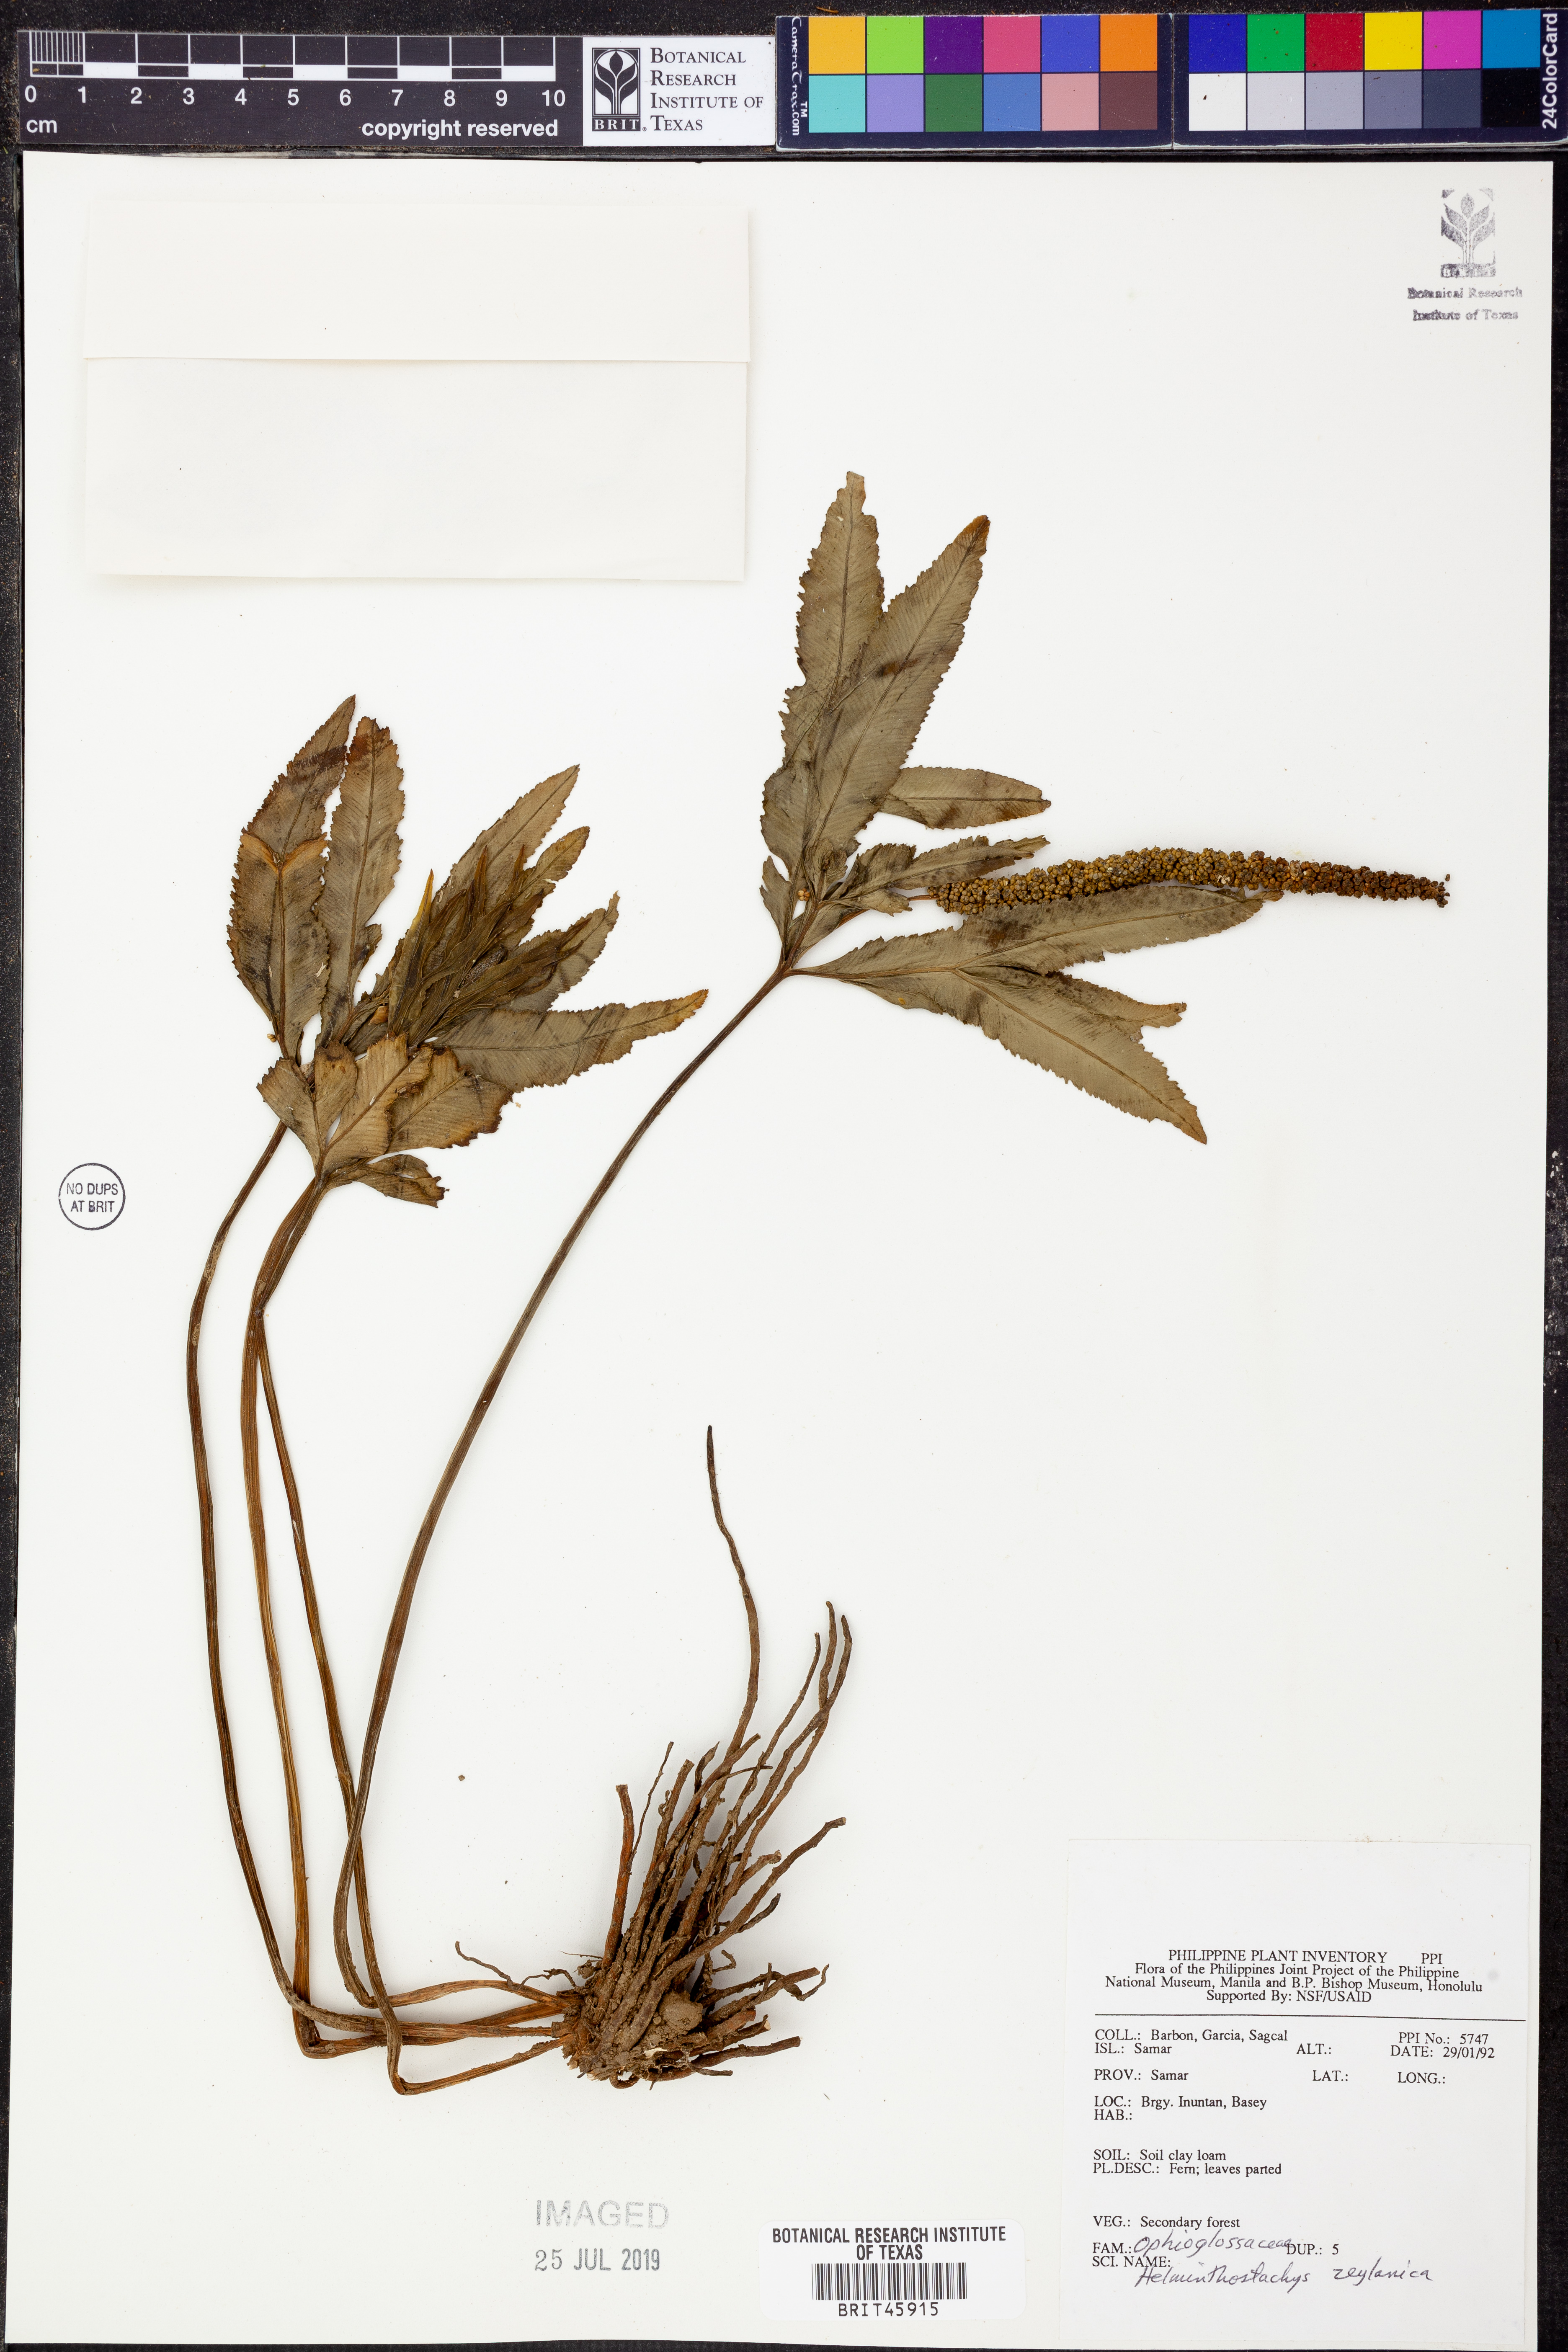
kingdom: Plantae
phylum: Tracheophyta
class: Polypodiopsida
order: Ophioglossales
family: Ophioglossaceae
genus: Helminthostachys
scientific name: Helminthostachys zeylanica
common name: Flowering fern
